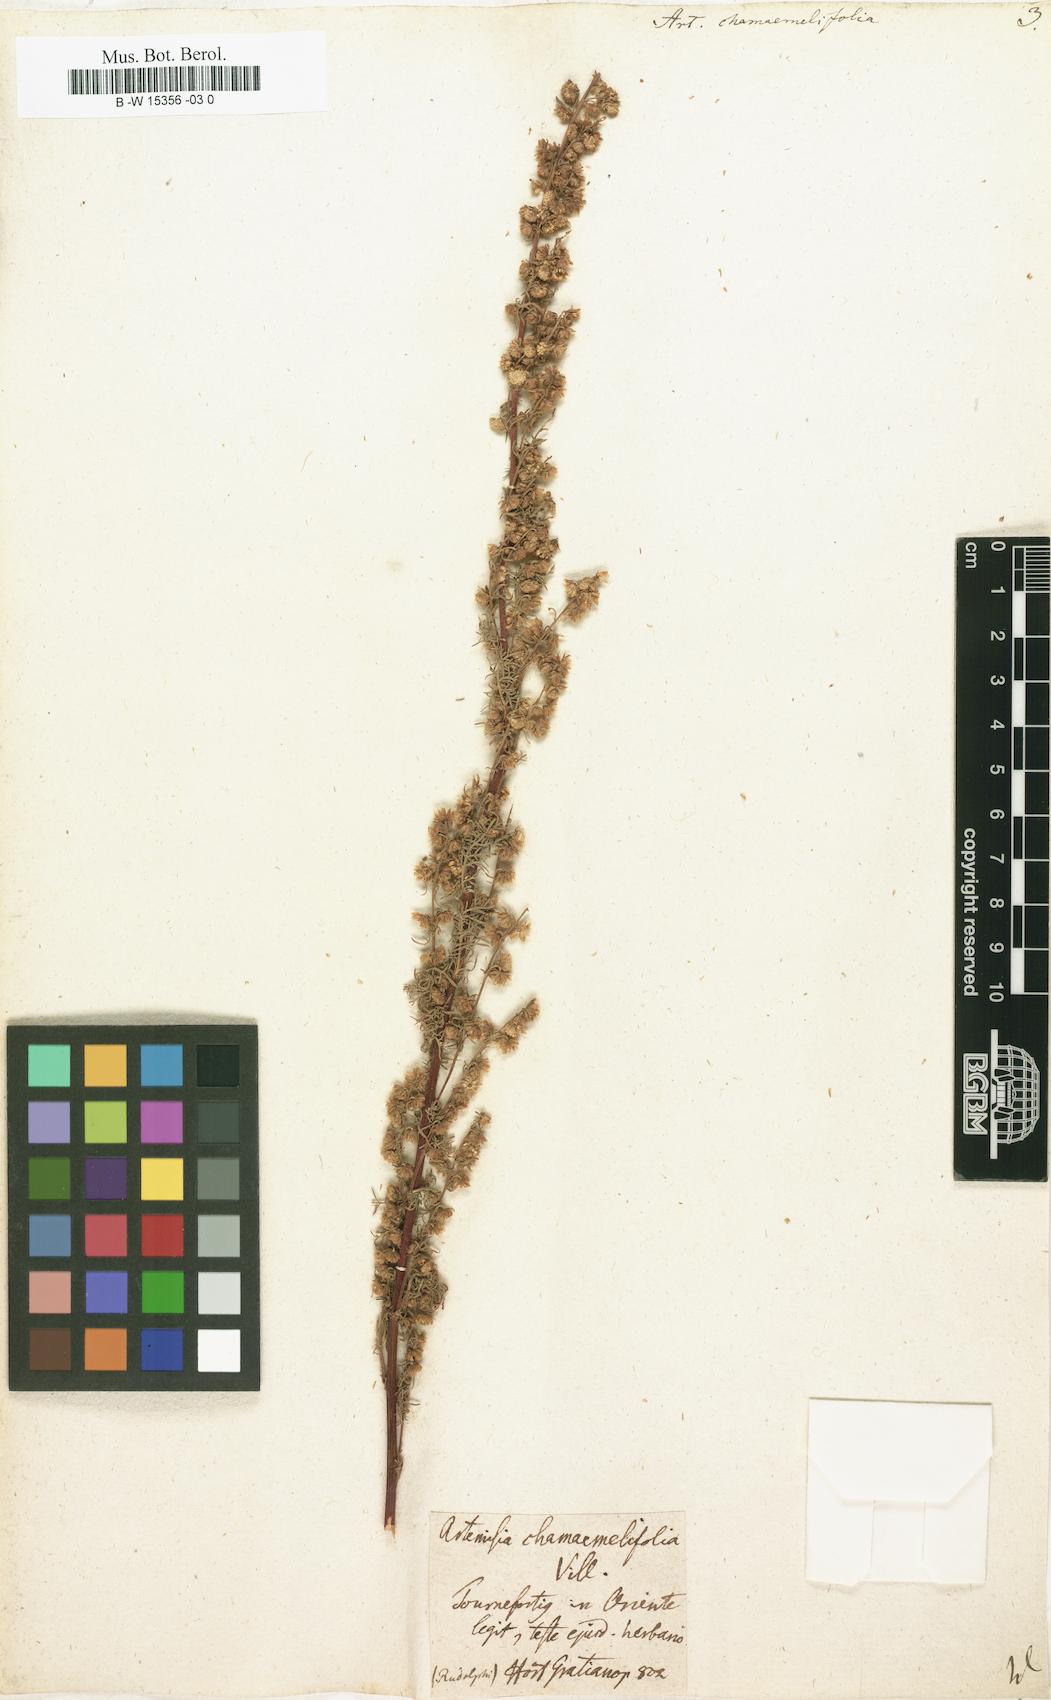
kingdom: Plantae
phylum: Tracheophyta
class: Magnoliopsida
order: Asterales
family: Asteraceae
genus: Artemisia
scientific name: Artemisia chamaemelifolia
